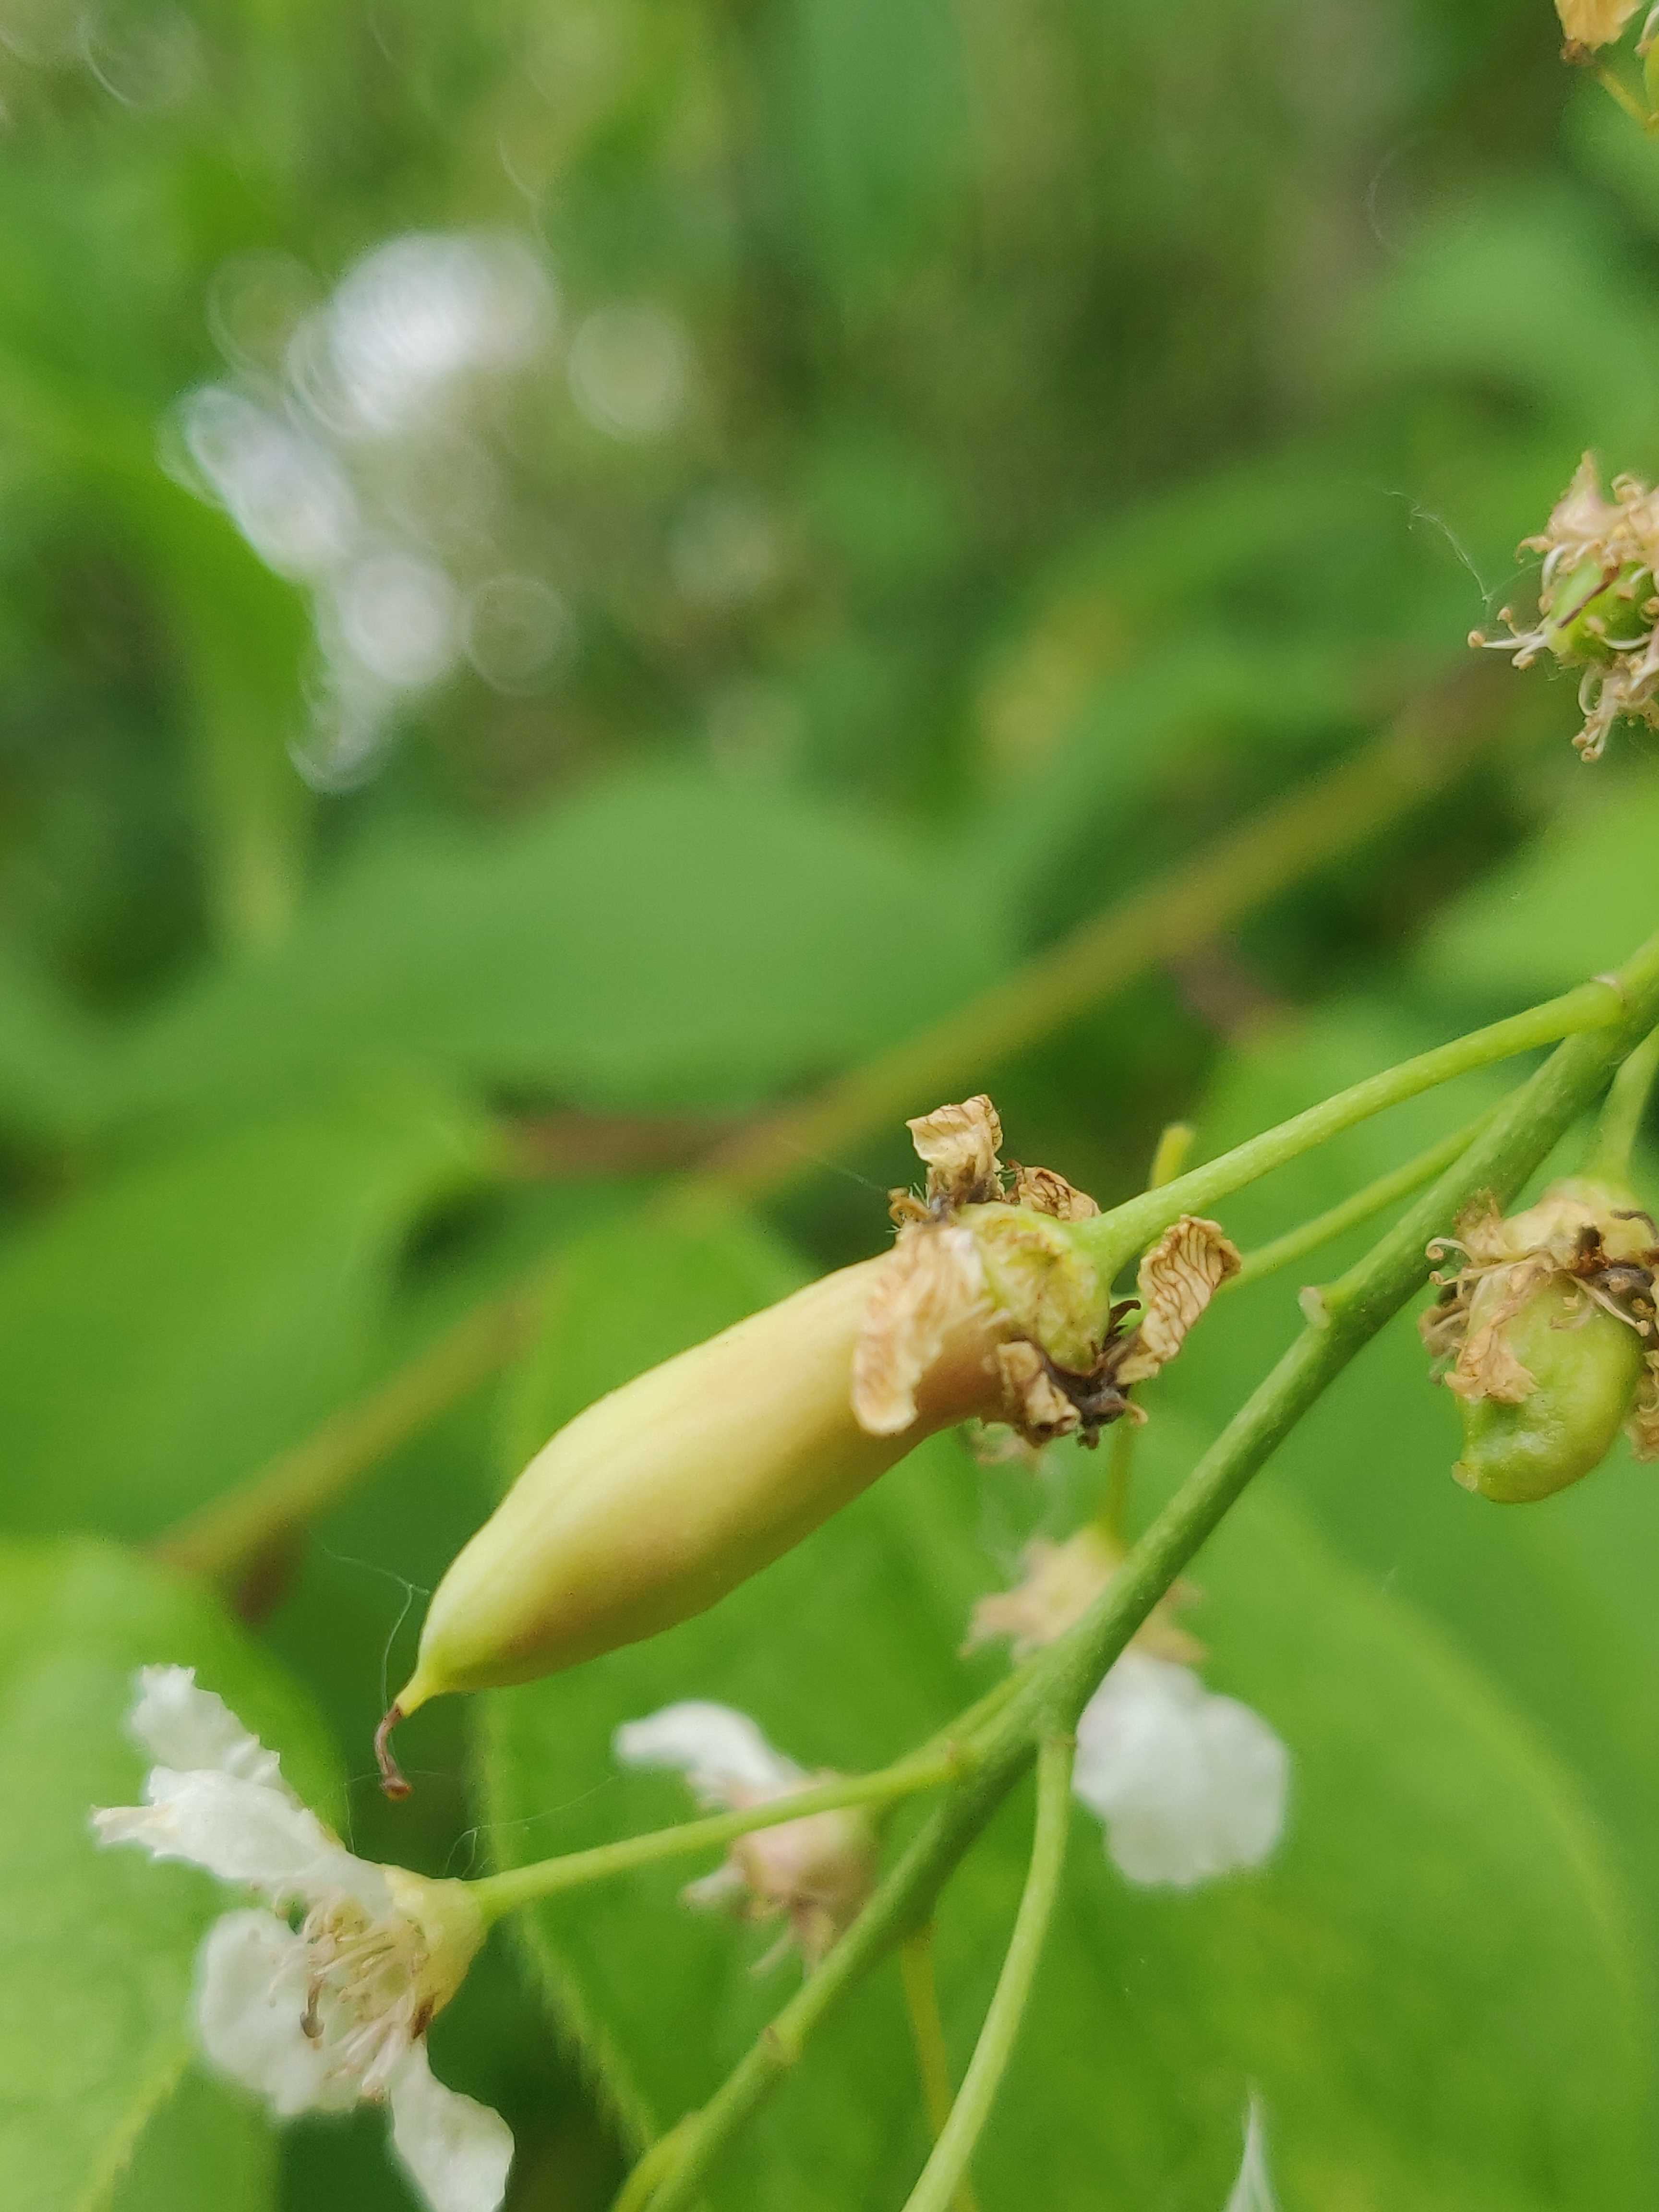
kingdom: Fungi
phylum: Ascomycota
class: Taphrinomycetes
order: Taphrinales
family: Taphrinaceae
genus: Taphrina
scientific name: Taphrina padi
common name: Bird cherry pocket
